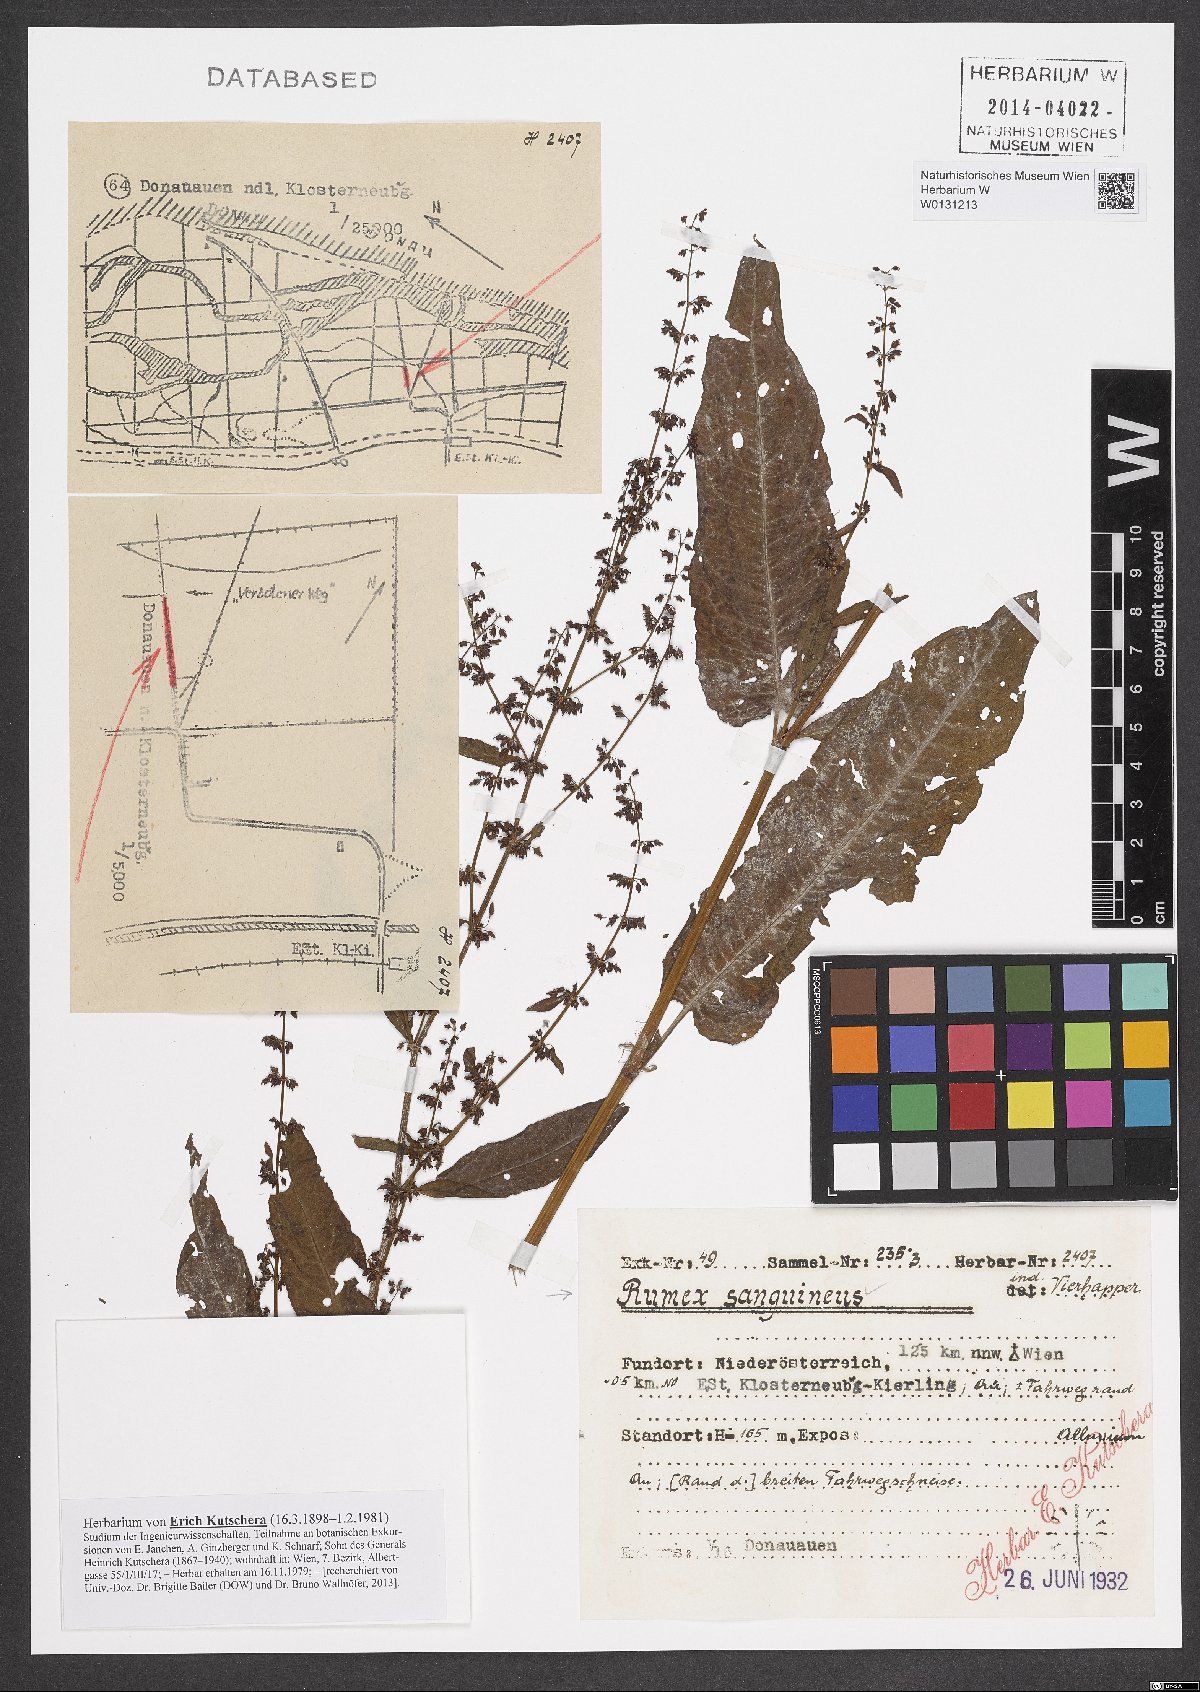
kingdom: Plantae
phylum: Tracheophyta
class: Magnoliopsida
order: Caryophyllales
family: Polygonaceae
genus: Rumex
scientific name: Rumex sanguineus
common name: Wood dock
